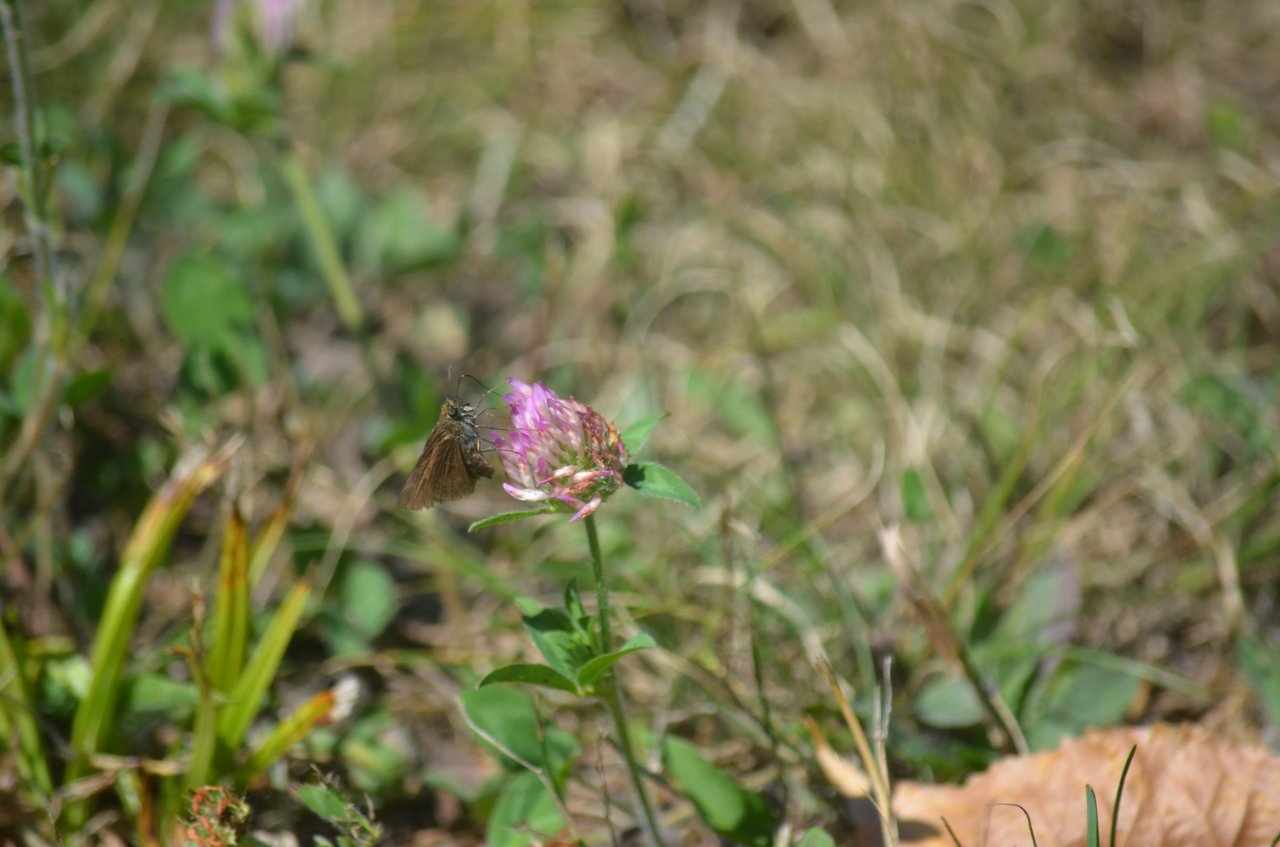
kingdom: Animalia
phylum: Arthropoda
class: Insecta
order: Lepidoptera
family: Hesperiidae
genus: Euphyes
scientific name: Euphyes vestris
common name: Dun Skipper
